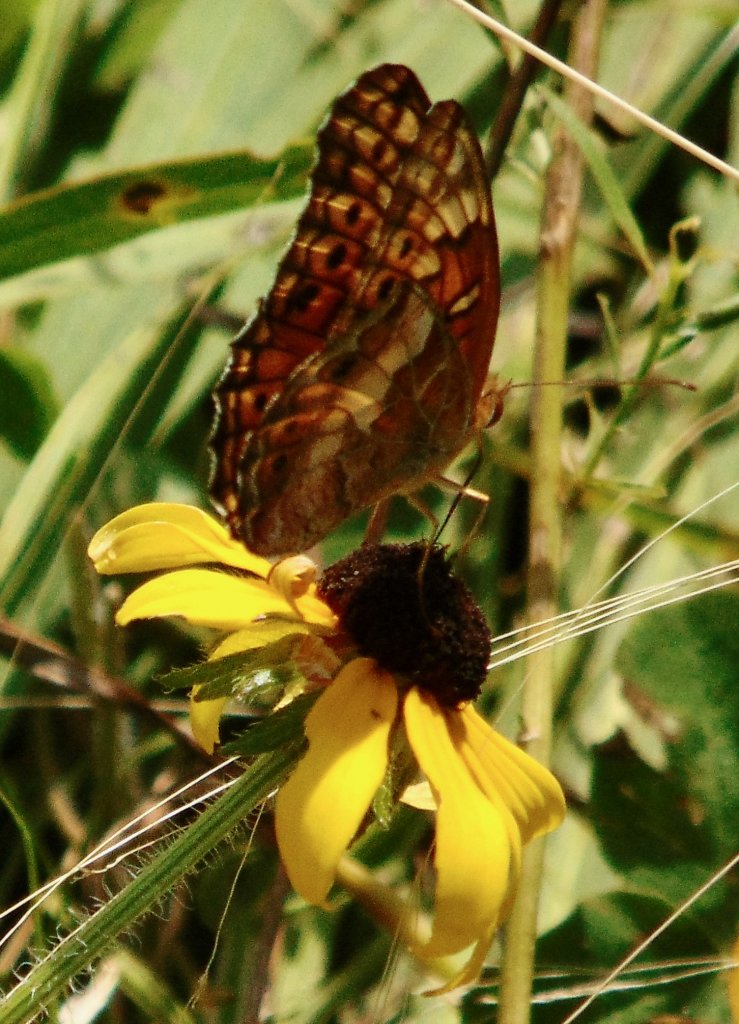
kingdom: Animalia
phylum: Arthropoda
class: Insecta
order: Lepidoptera
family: Nymphalidae
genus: Euptoieta
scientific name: Euptoieta claudia
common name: Variegated Fritillary
